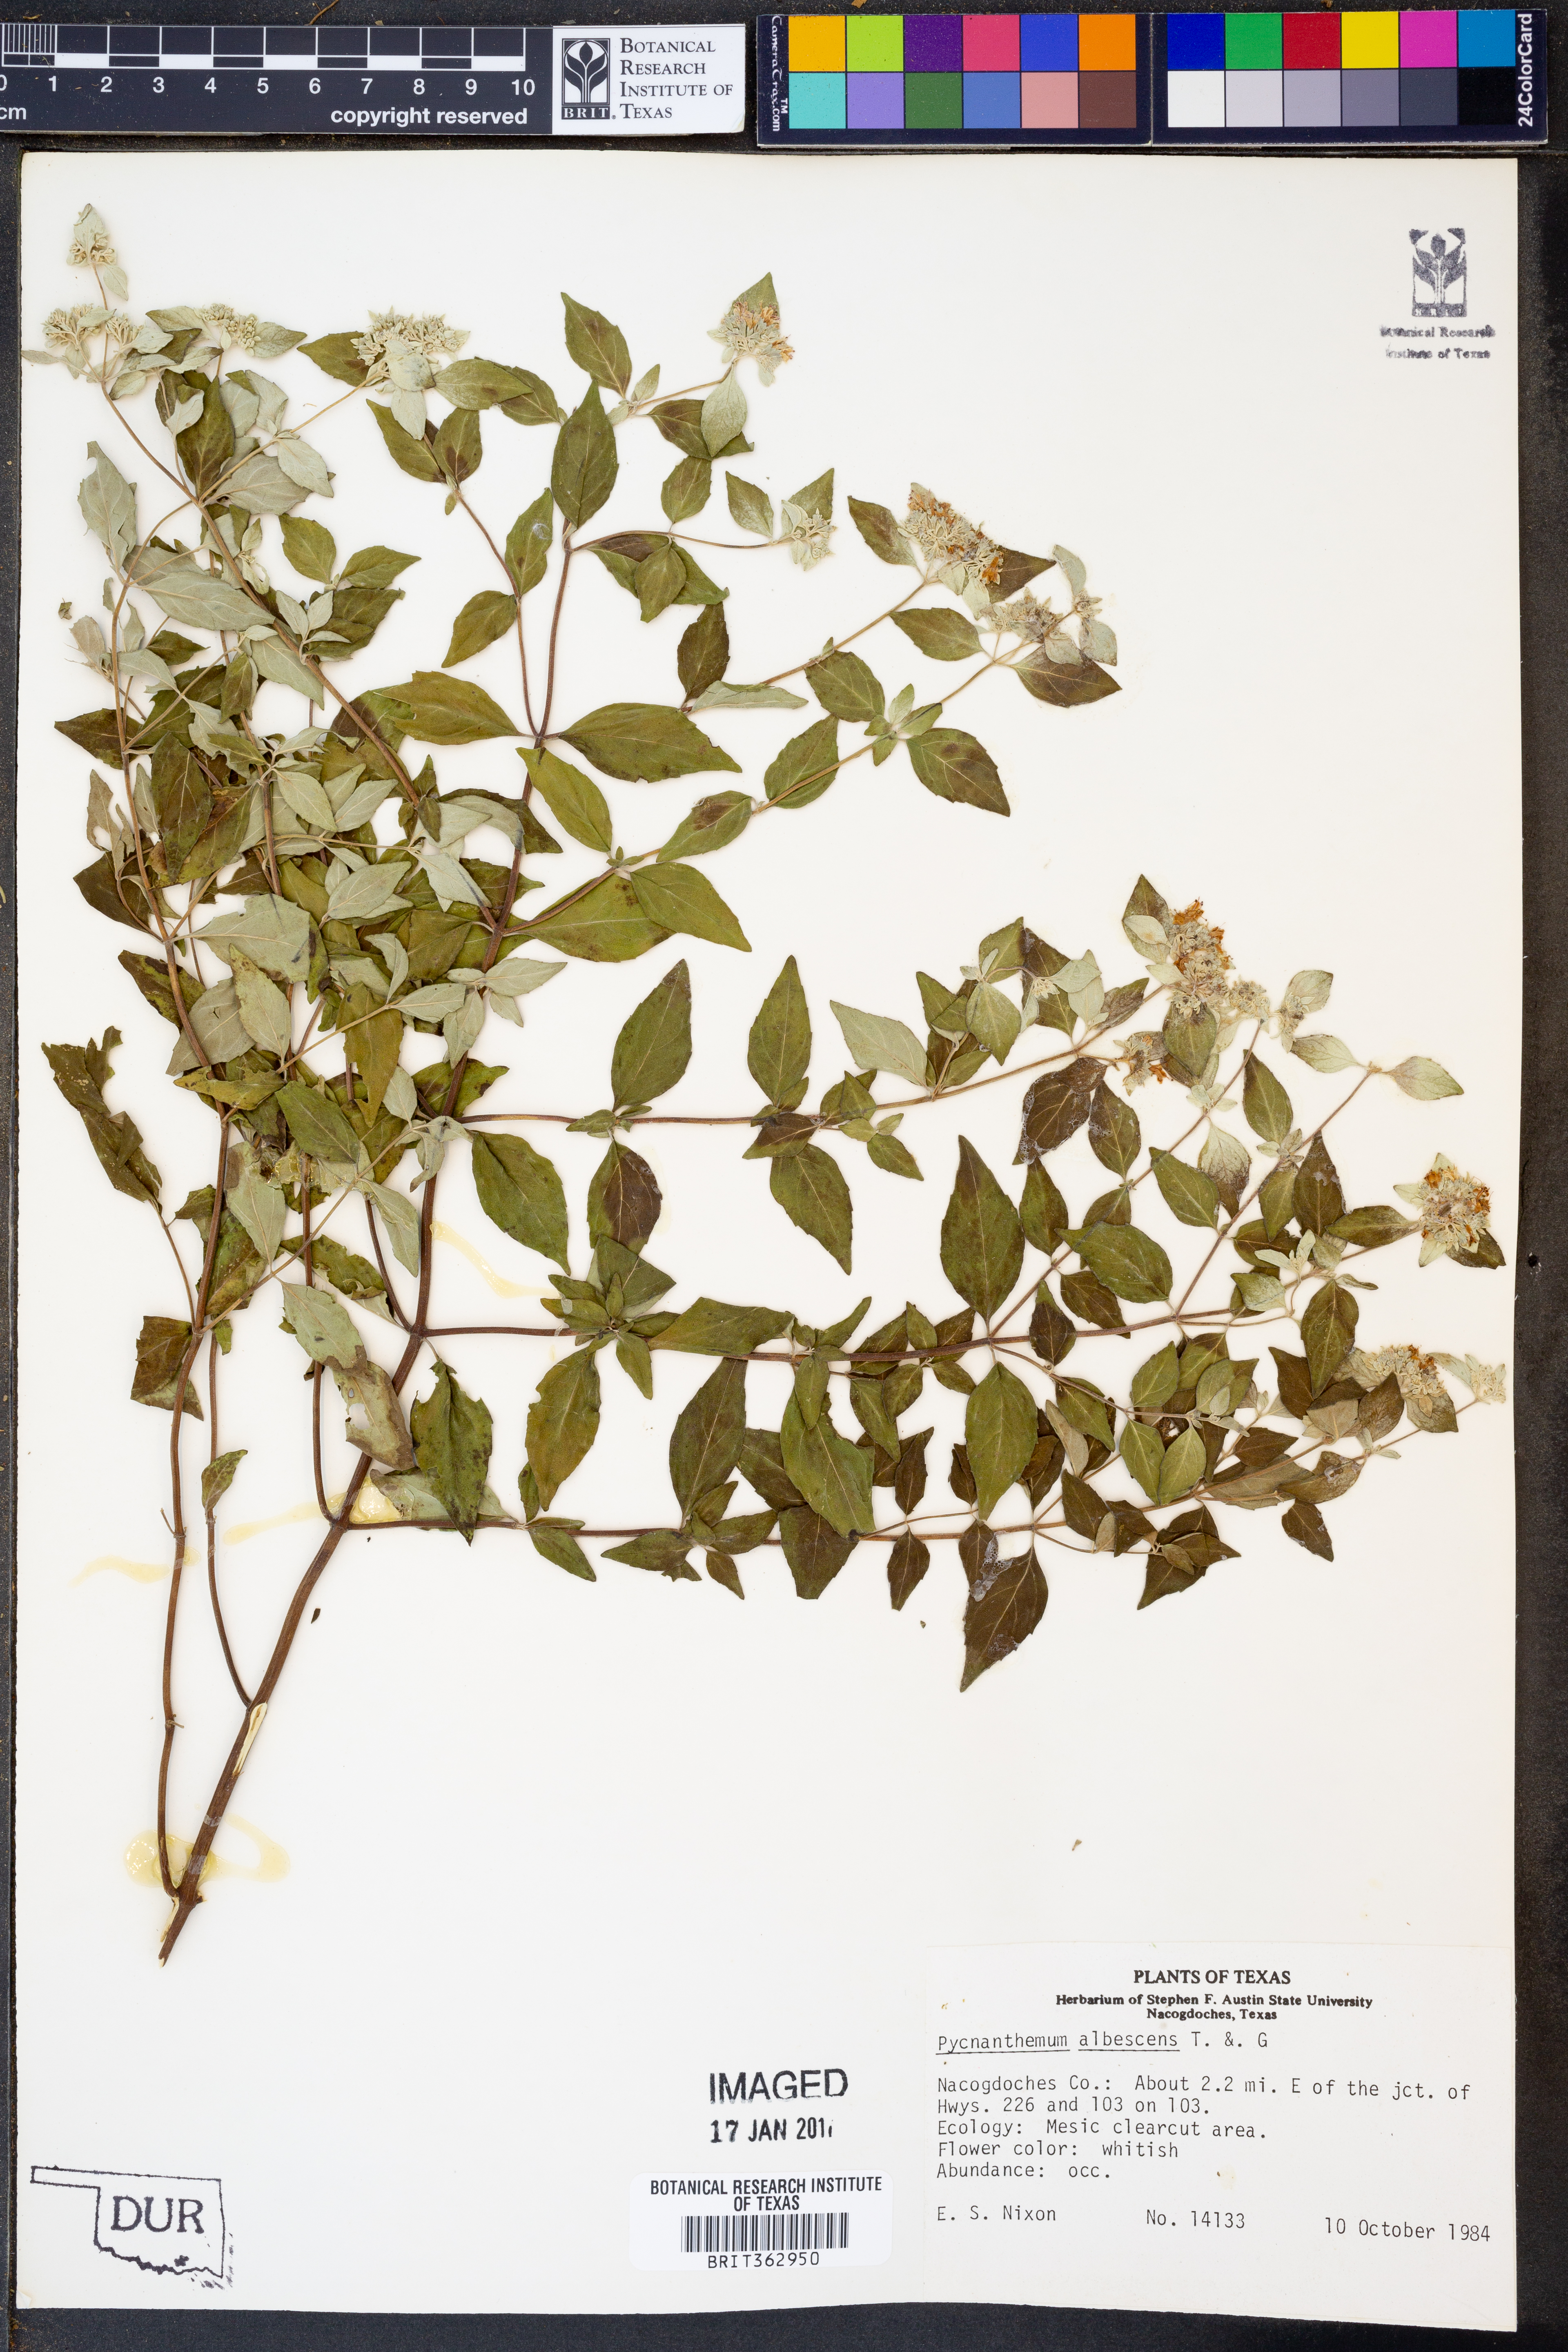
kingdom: Plantae
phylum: Tracheophyta
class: Magnoliopsida
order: Lamiales
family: Lamiaceae
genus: Pycnanthemum
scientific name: Pycnanthemum albescens
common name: White-leaf mountain-mint
